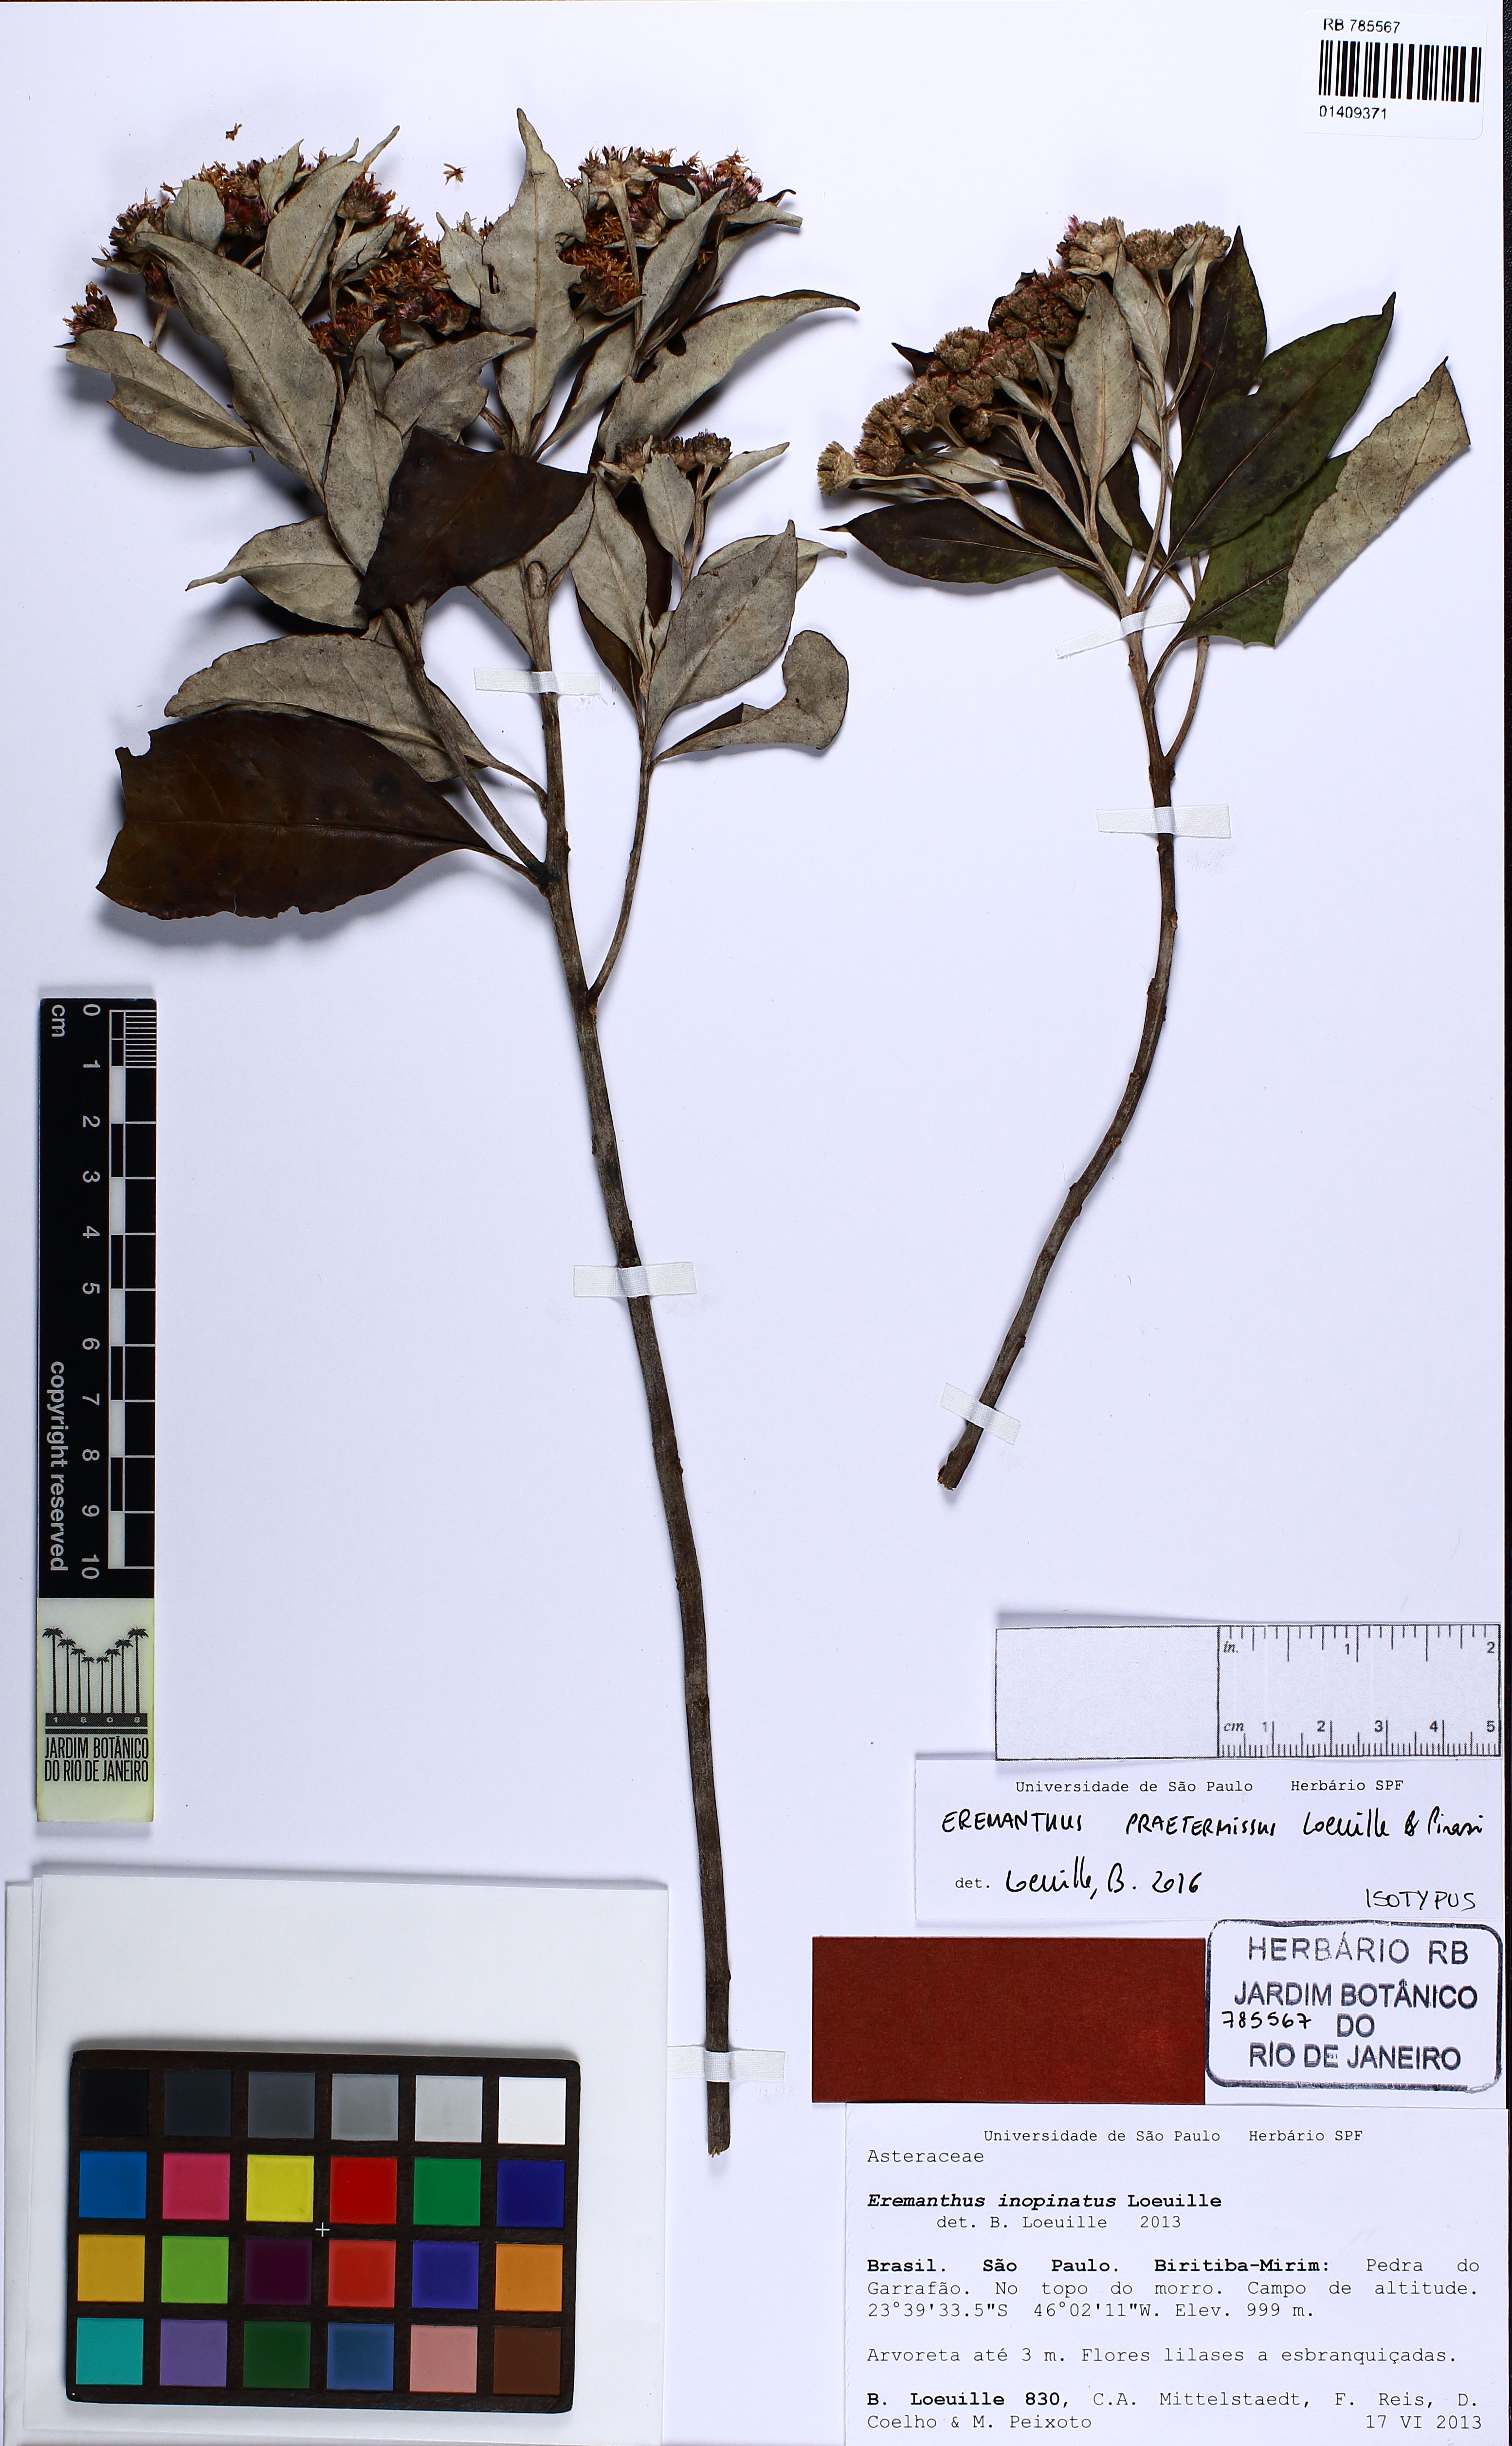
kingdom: Plantae
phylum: Tracheophyta
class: Magnoliopsida
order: Asterales
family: Asteraceae
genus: Eremanthus
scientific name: Eremanthus praetermissus
